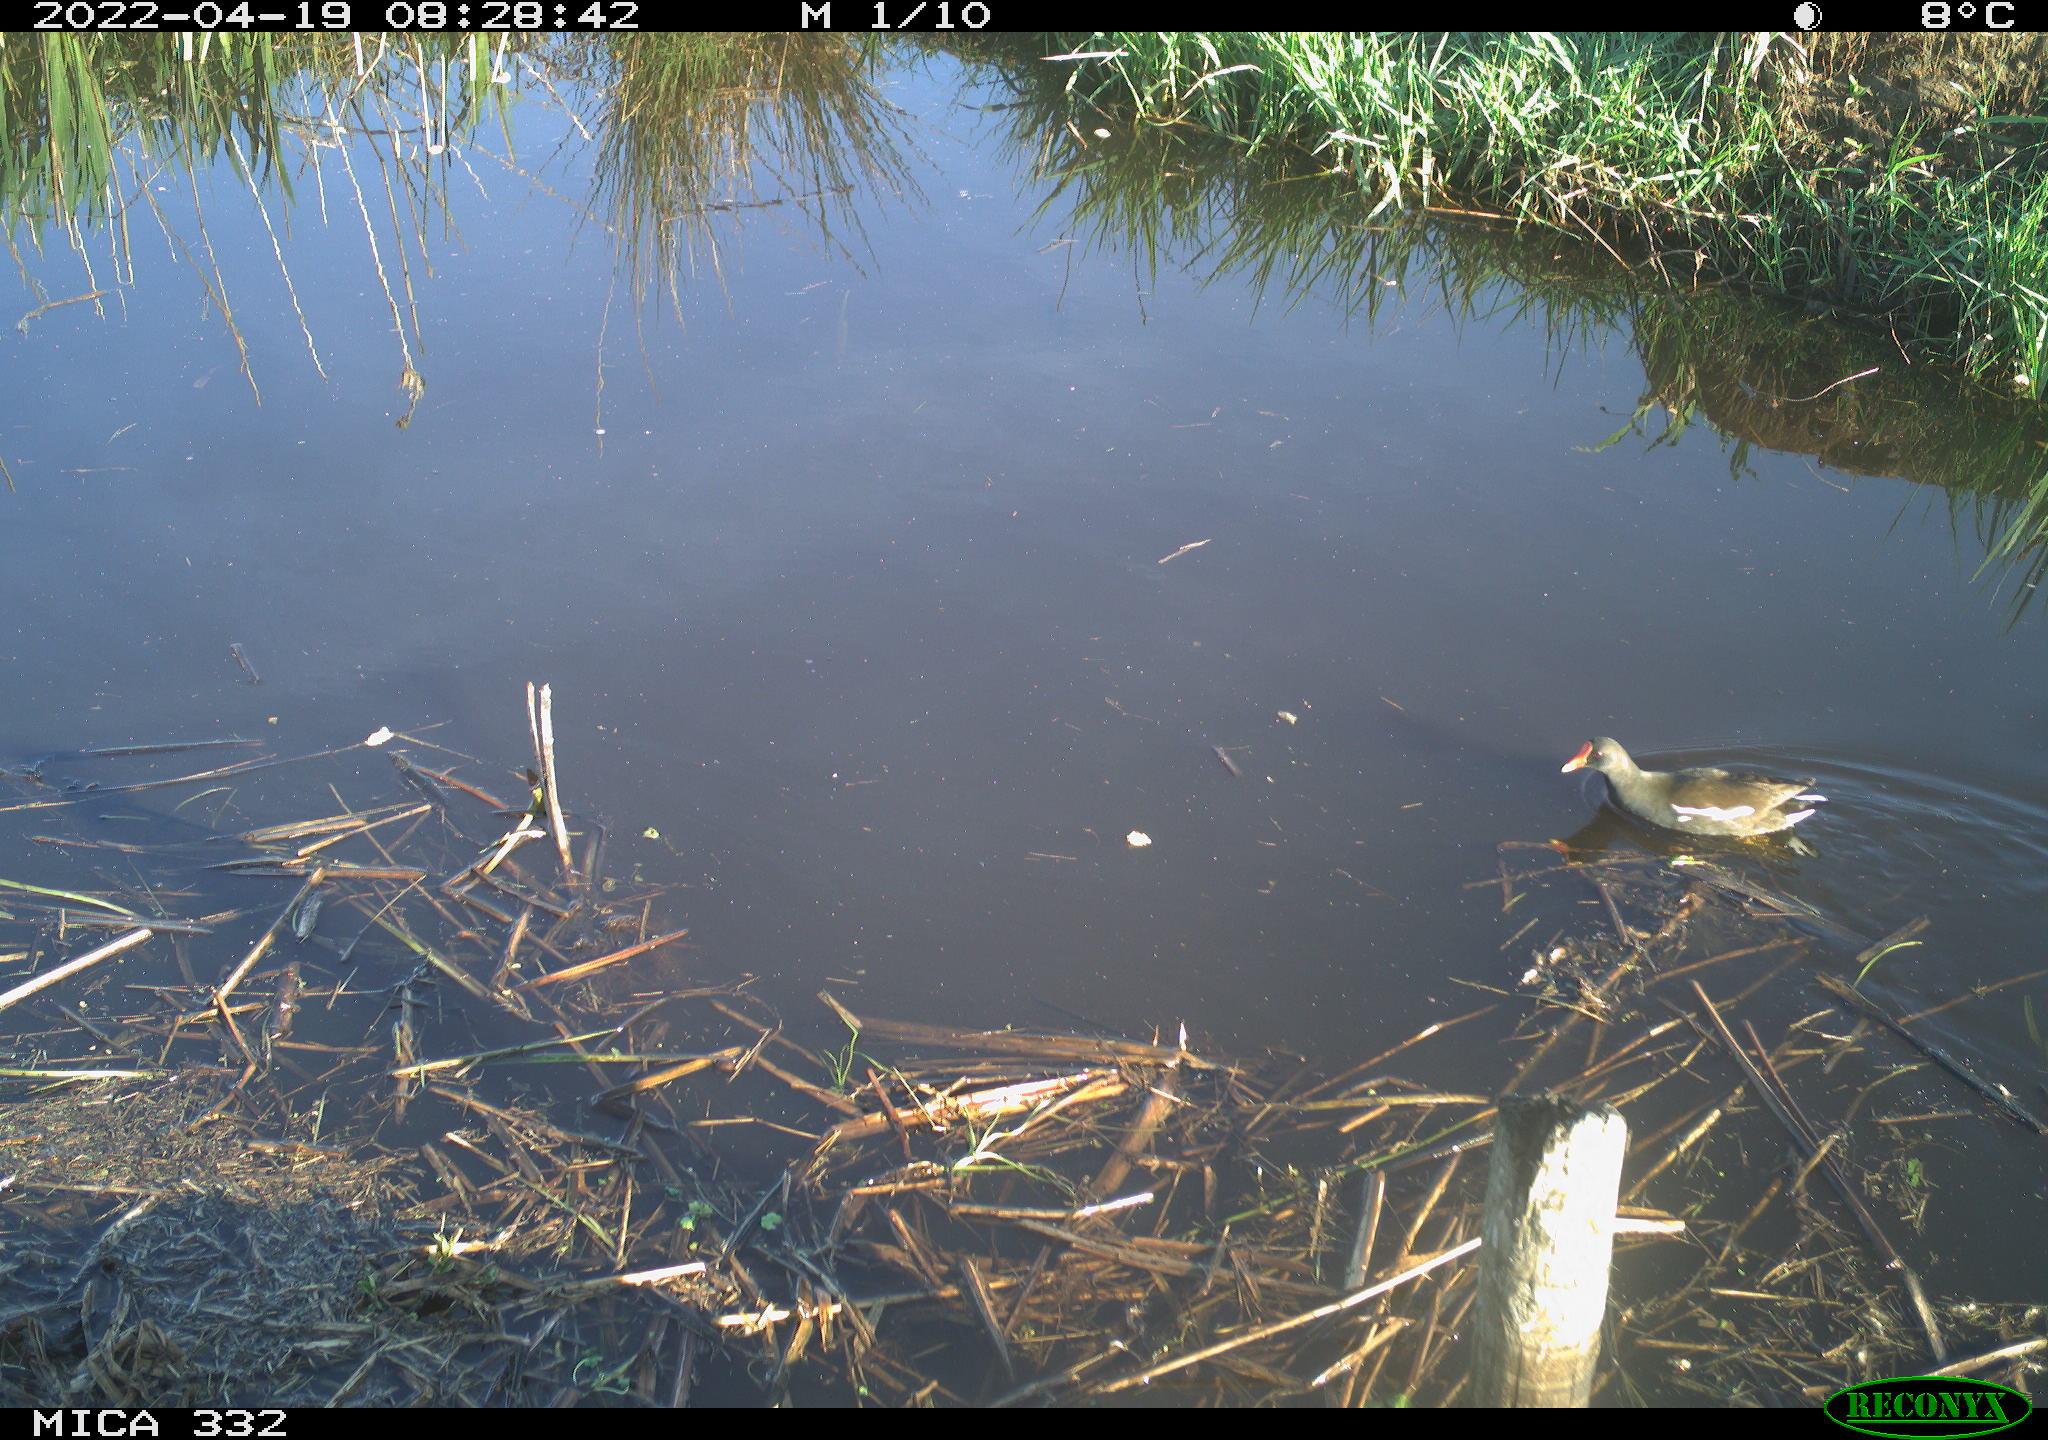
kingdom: Animalia
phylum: Chordata
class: Aves
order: Gruiformes
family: Rallidae
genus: Gallinula
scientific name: Gallinula chloropus
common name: Common moorhen
